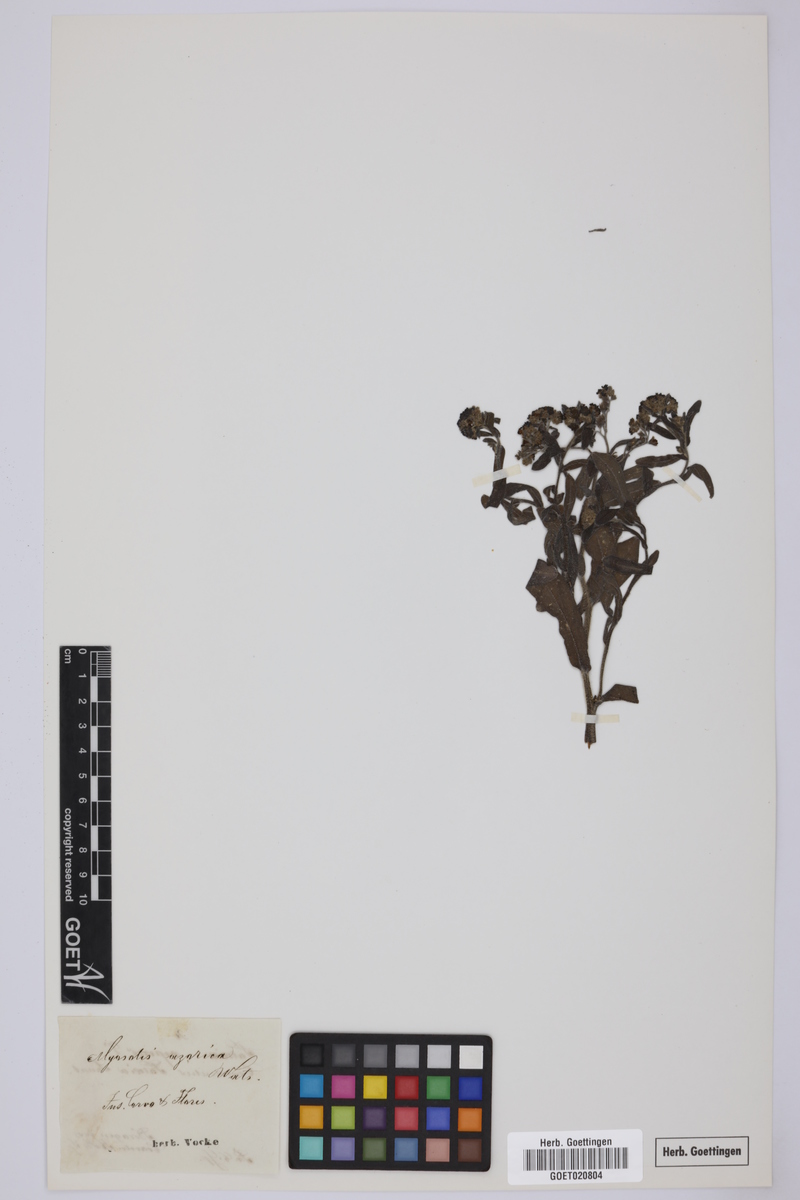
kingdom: Plantae
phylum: Tracheophyta
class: Magnoliopsida
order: Boraginales
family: Boraginaceae
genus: Myosotis
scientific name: Myosotis azorica
